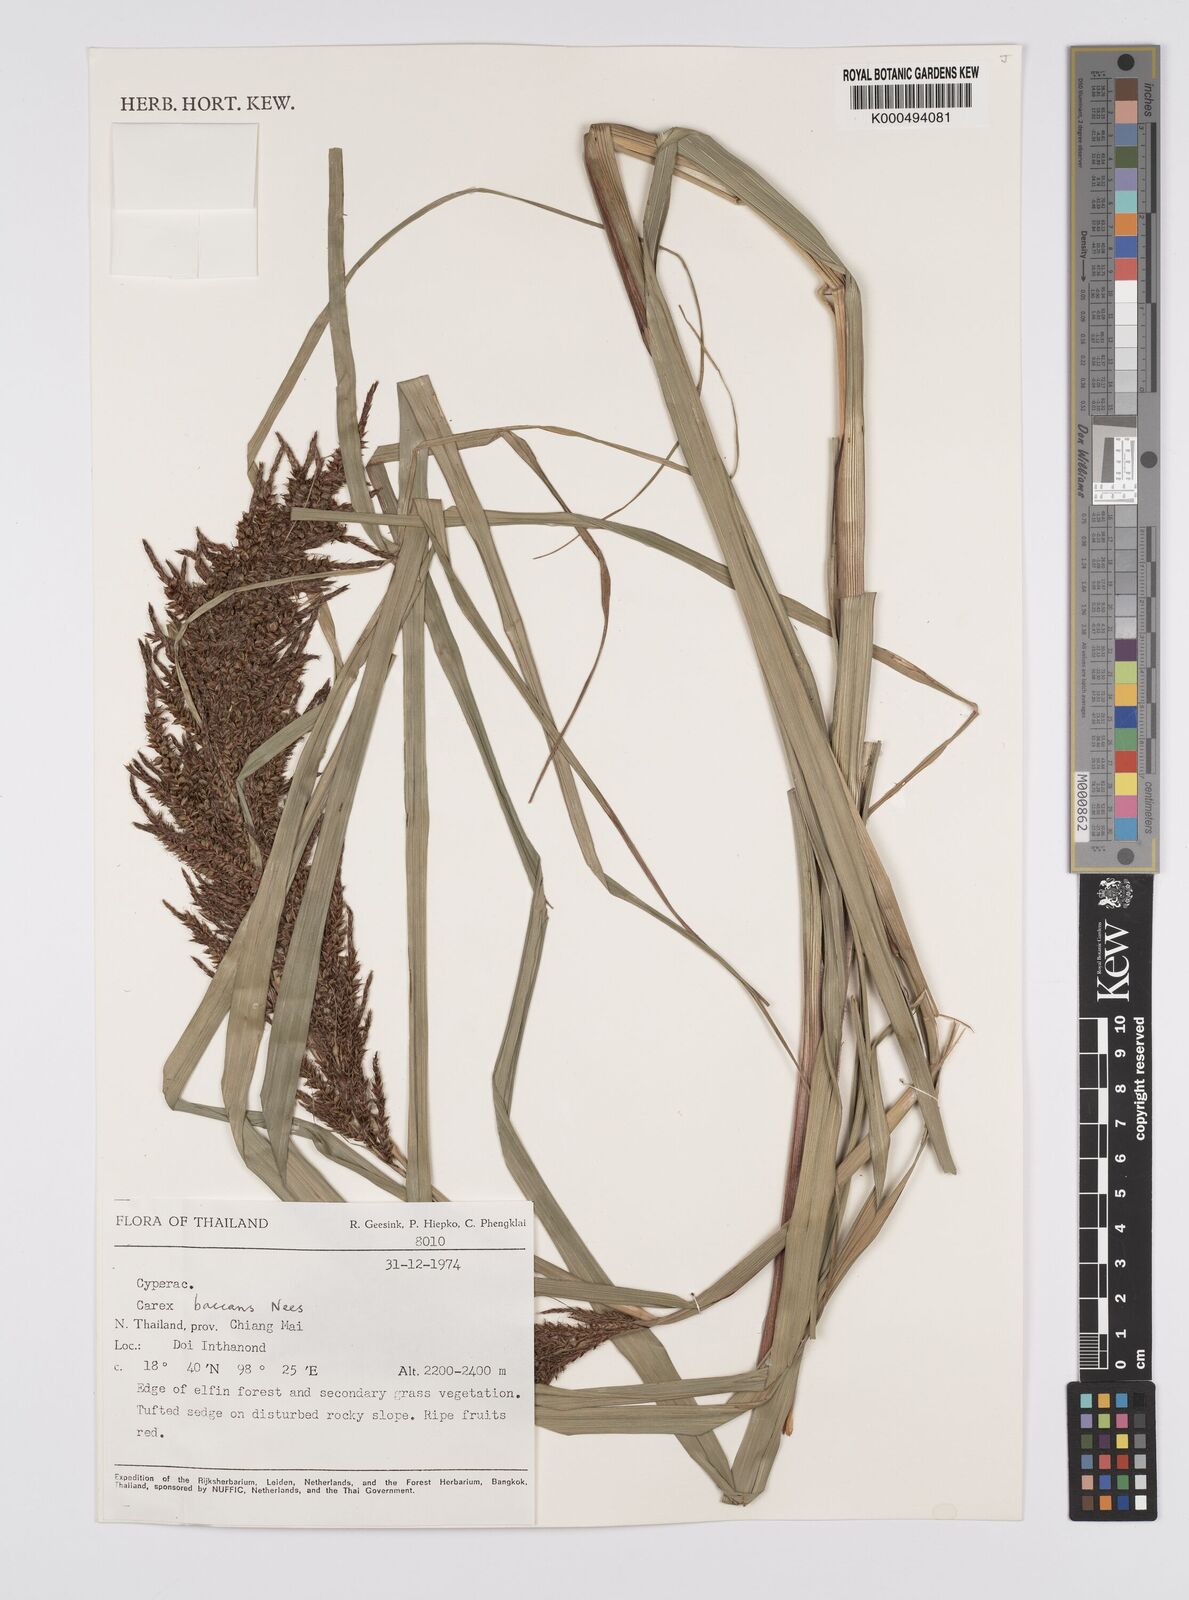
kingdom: Plantae
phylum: Tracheophyta
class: Liliopsida
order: Poales
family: Cyperaceae
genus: Carex
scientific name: Carex baccans
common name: Crimson seeded sedge
